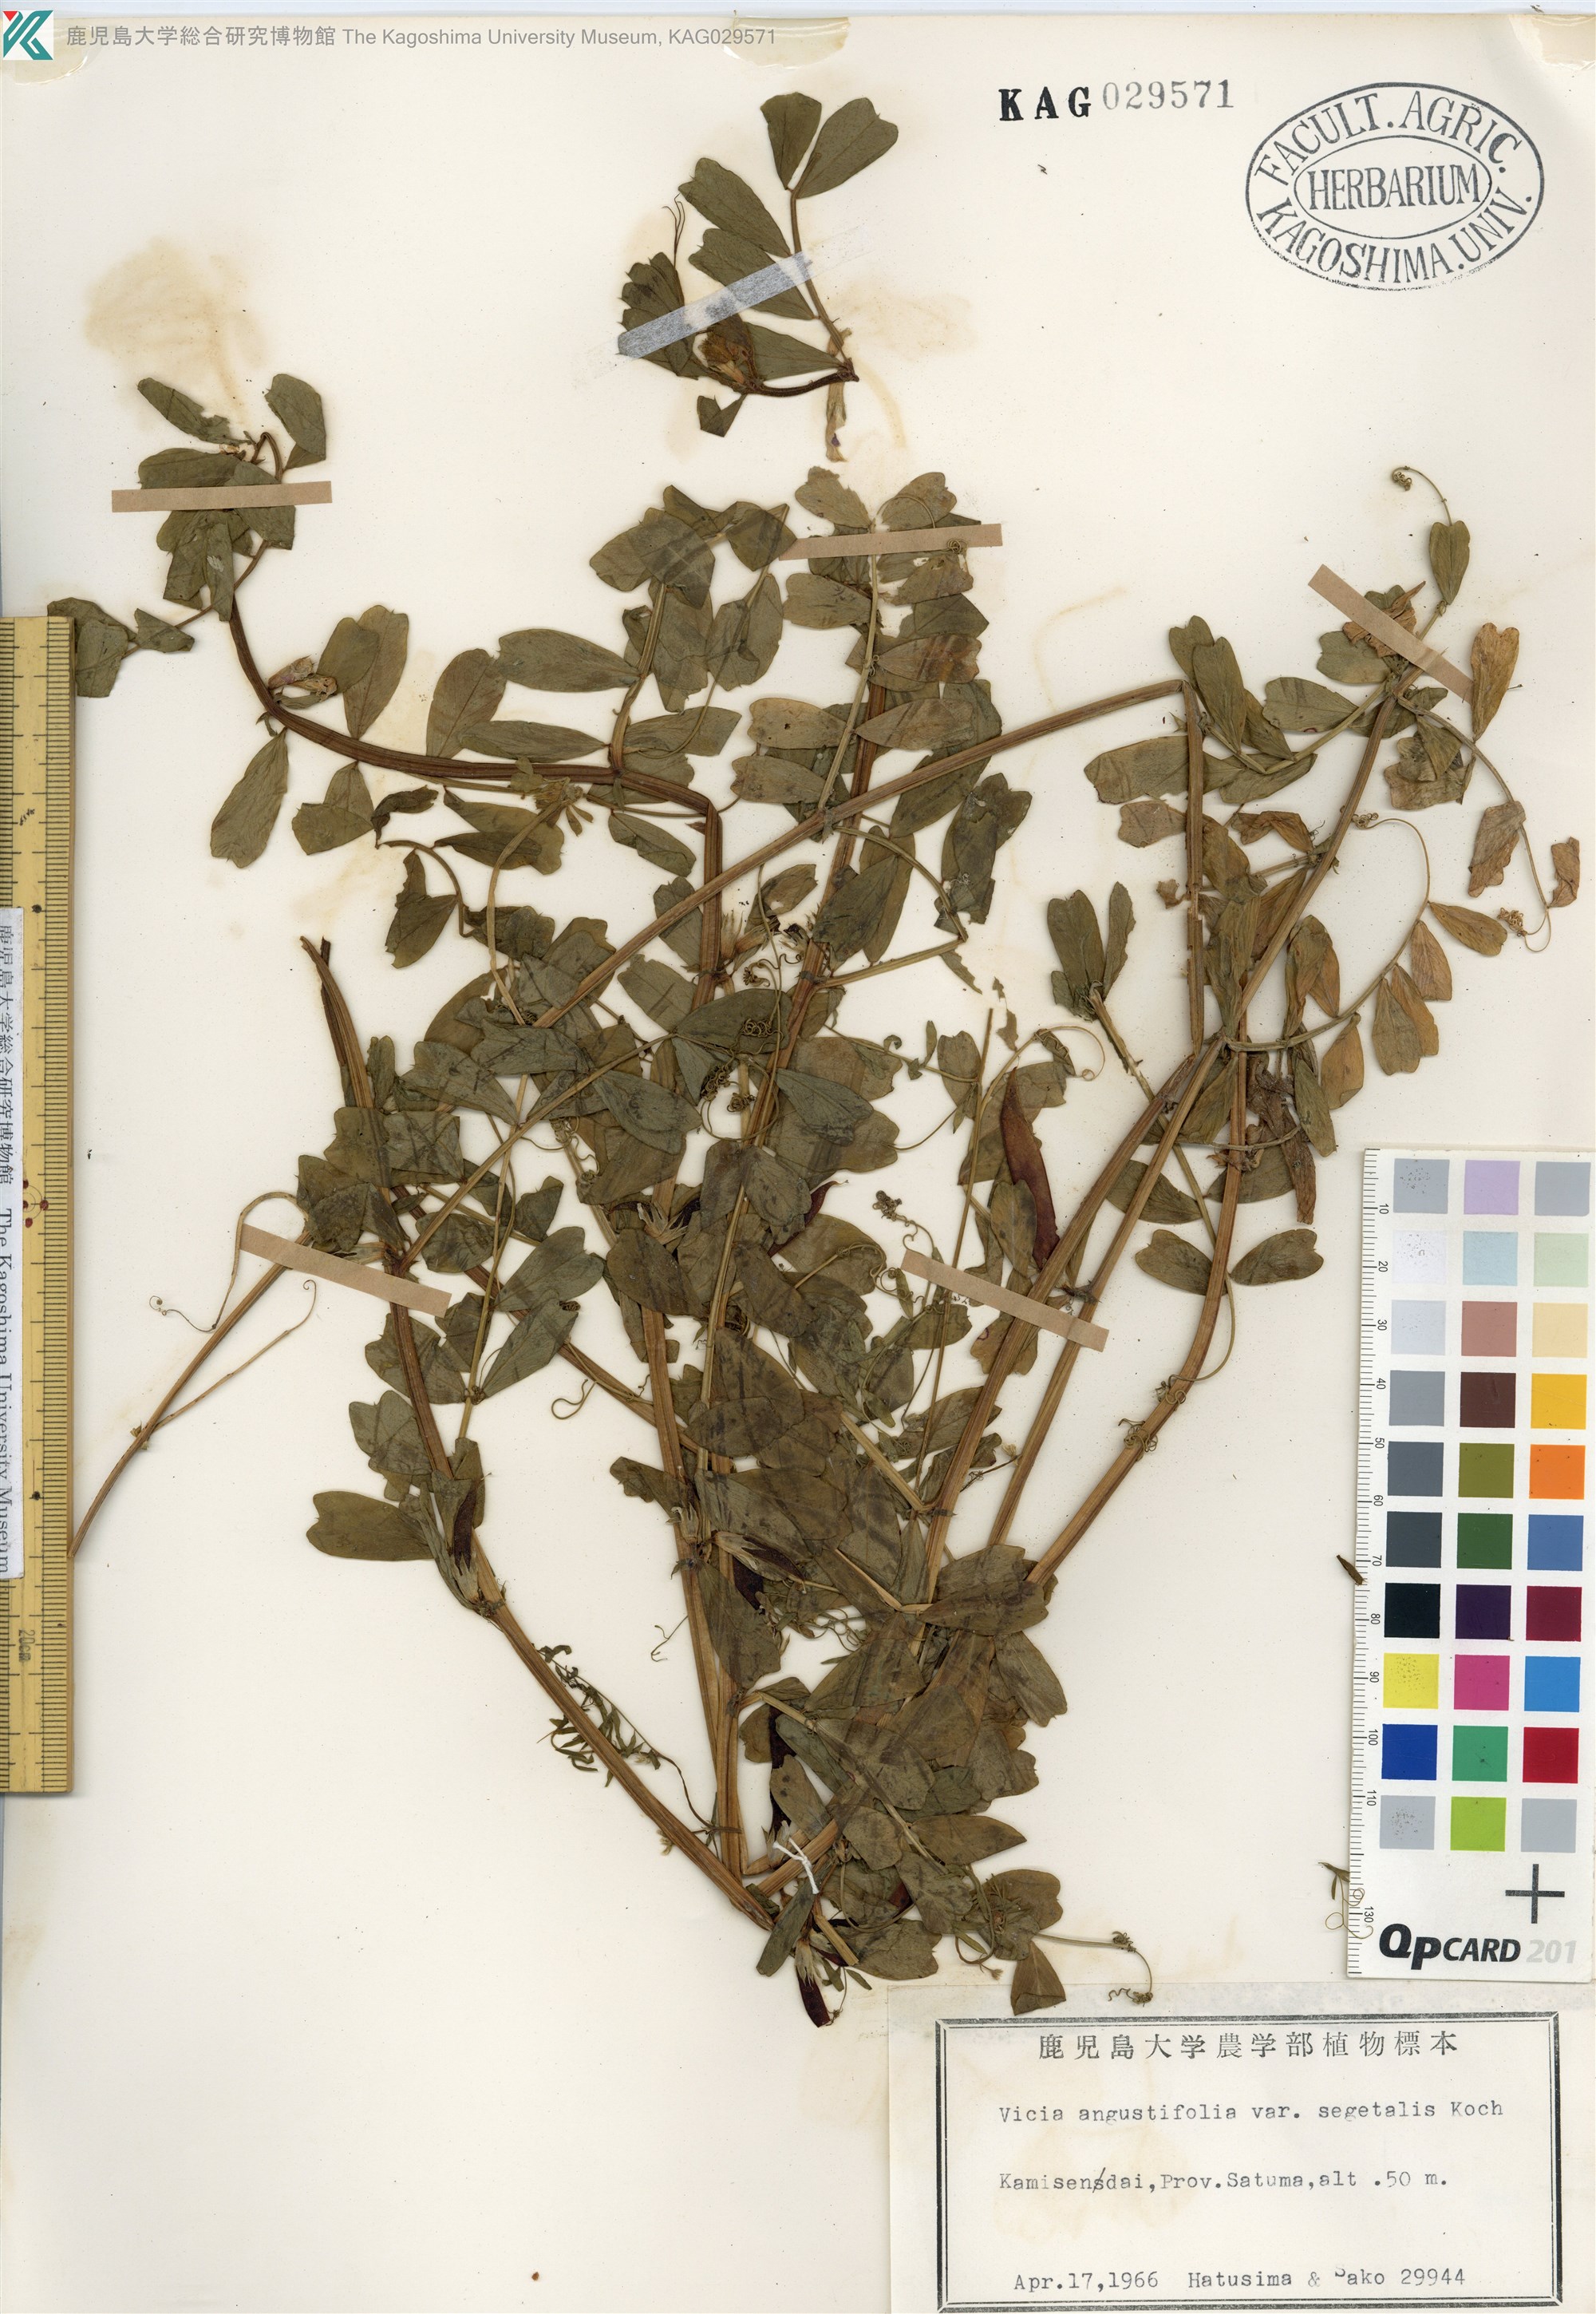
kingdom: Plantae
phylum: Tracheophyta
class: Magnoliopsida
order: Fabales
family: Fabaceae
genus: Vicia
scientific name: Vicia sativa
